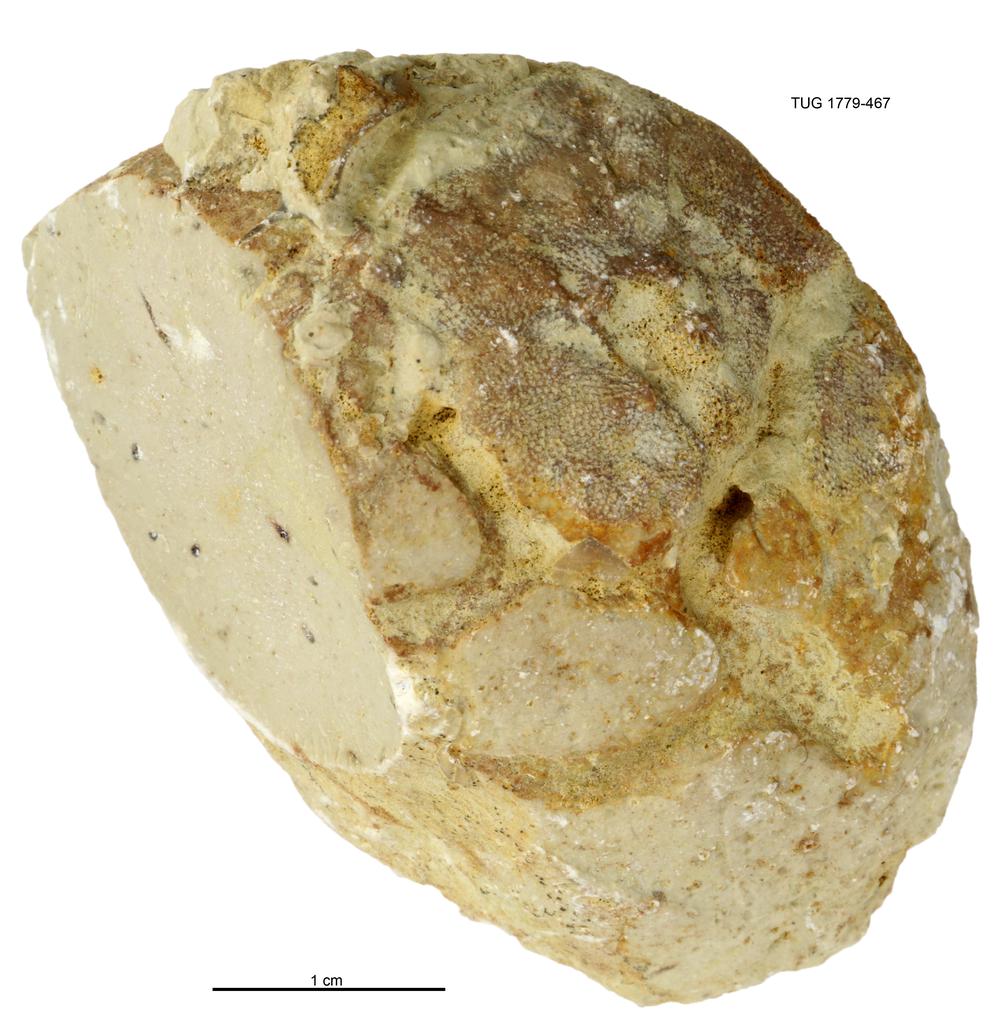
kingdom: Animalia
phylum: Mollusca
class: Bivalvia
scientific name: Bivalvia
